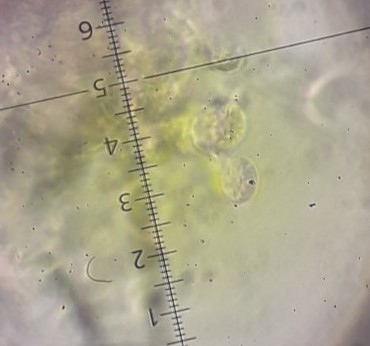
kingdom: Fungi
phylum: Basidiomycota
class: Agaricomycetes
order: Cantharellales
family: Tulasnellaceae
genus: Tulasnella
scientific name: Tulasnella violea
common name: violet ballonhinde
